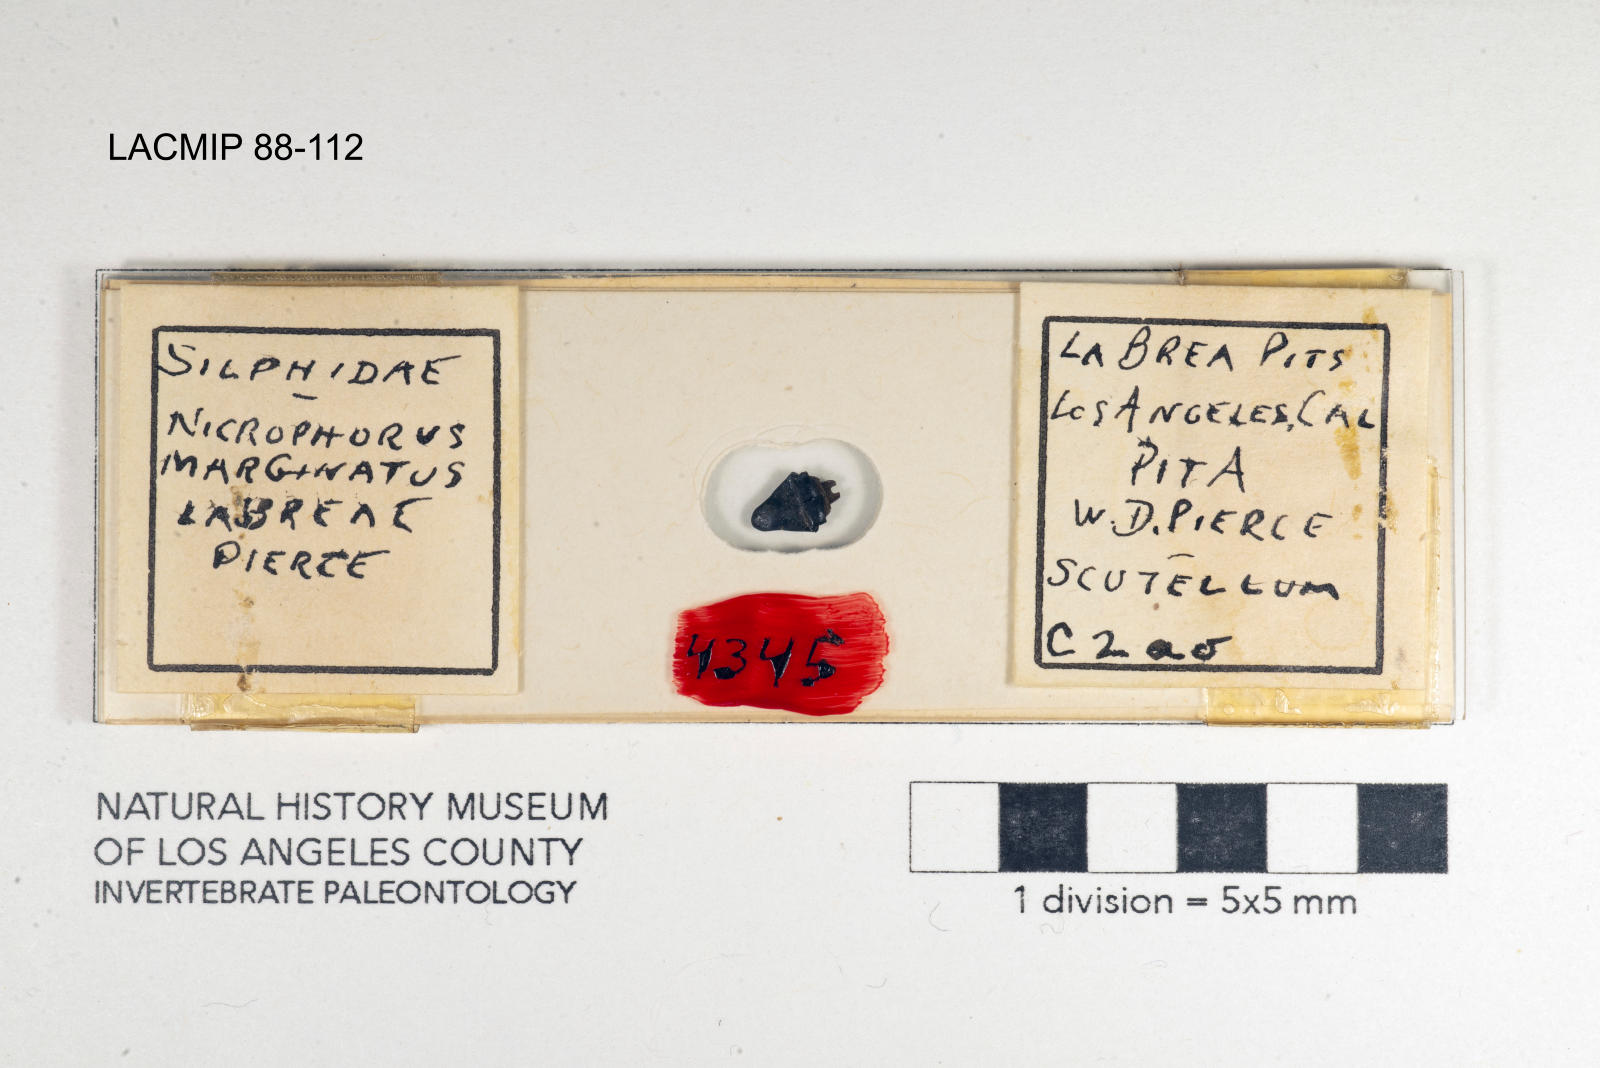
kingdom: Animalia
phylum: Arthropoda
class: Insecta
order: Coleoptera
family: Staphylinidae
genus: Nicrophorus
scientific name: Nicrophorus marginatus
